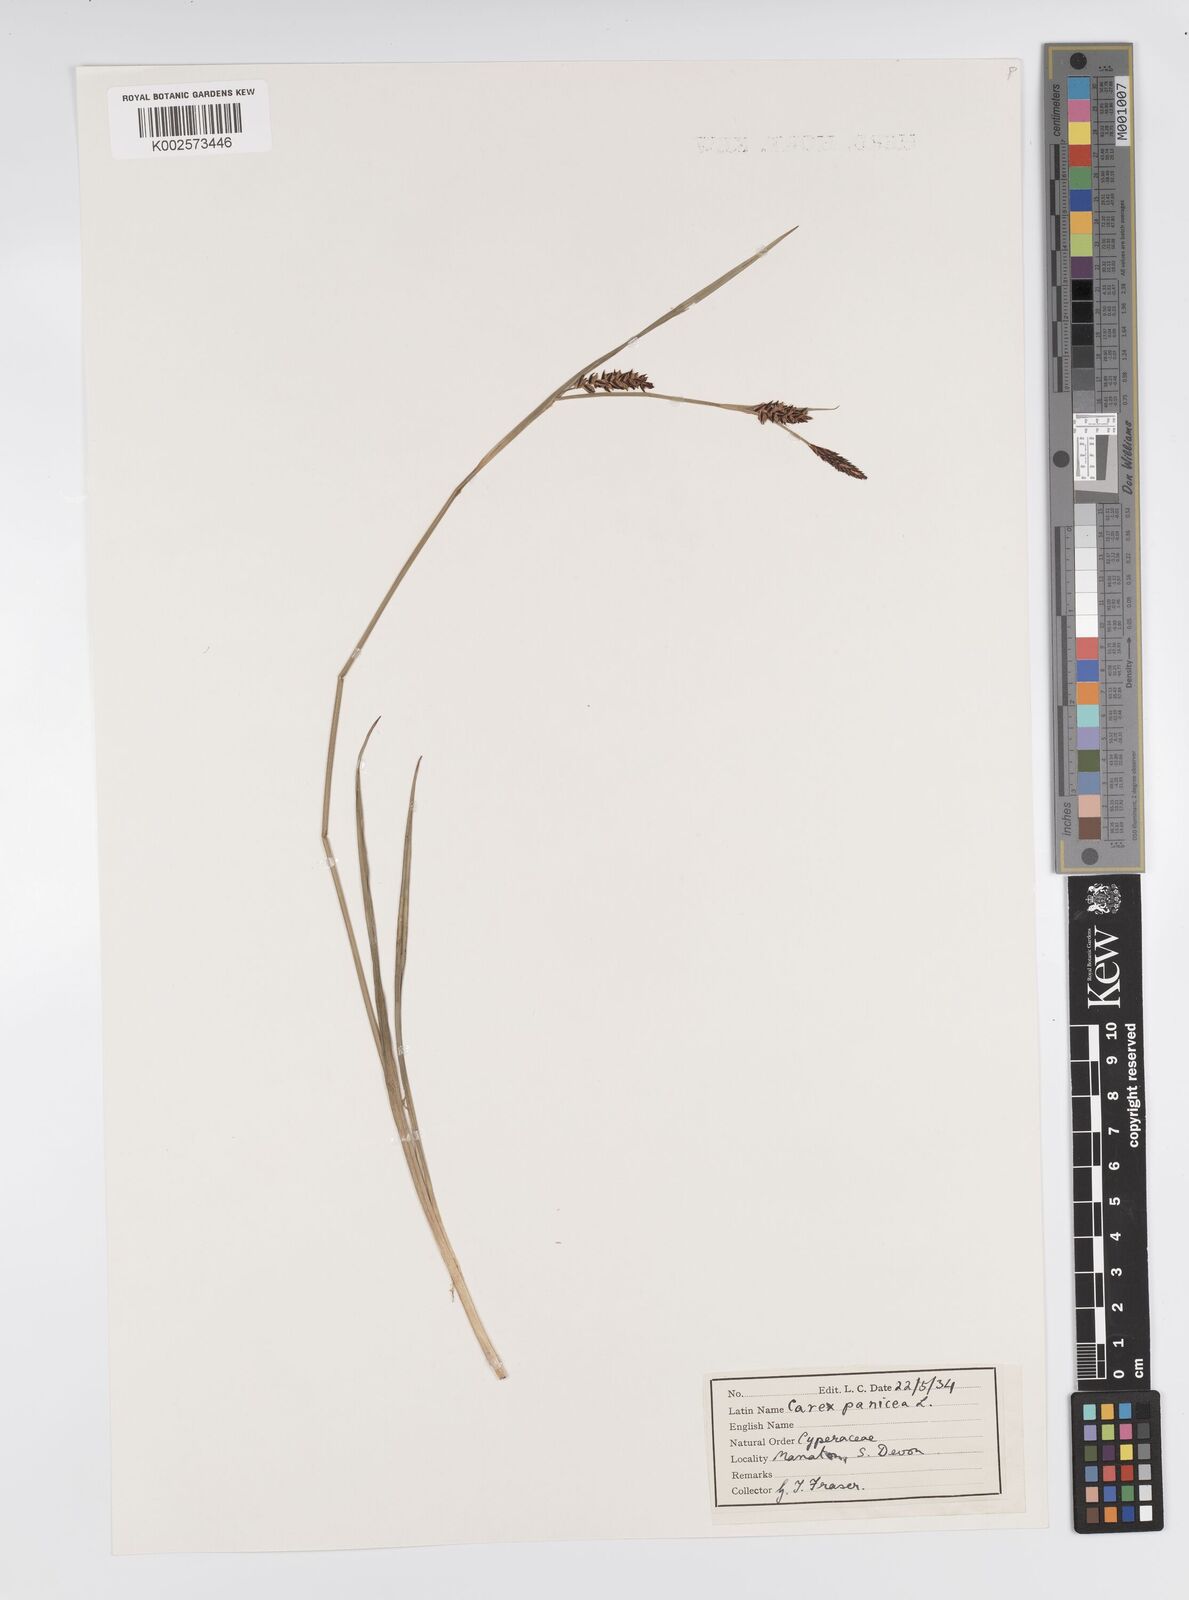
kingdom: Plantae
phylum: Tracheophyta
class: Liliopsida
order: Poales
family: Cyperaceae
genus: Carex
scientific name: Carex panicea
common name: Carnation sedge
